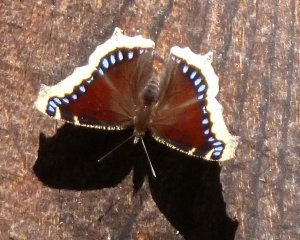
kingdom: Animalia
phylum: Arthropoda
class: Insecta
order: Lepidoptera
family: Nymphalidae
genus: Nymphalis
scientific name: Nymphalis antiopa
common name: Mourning Cloak
